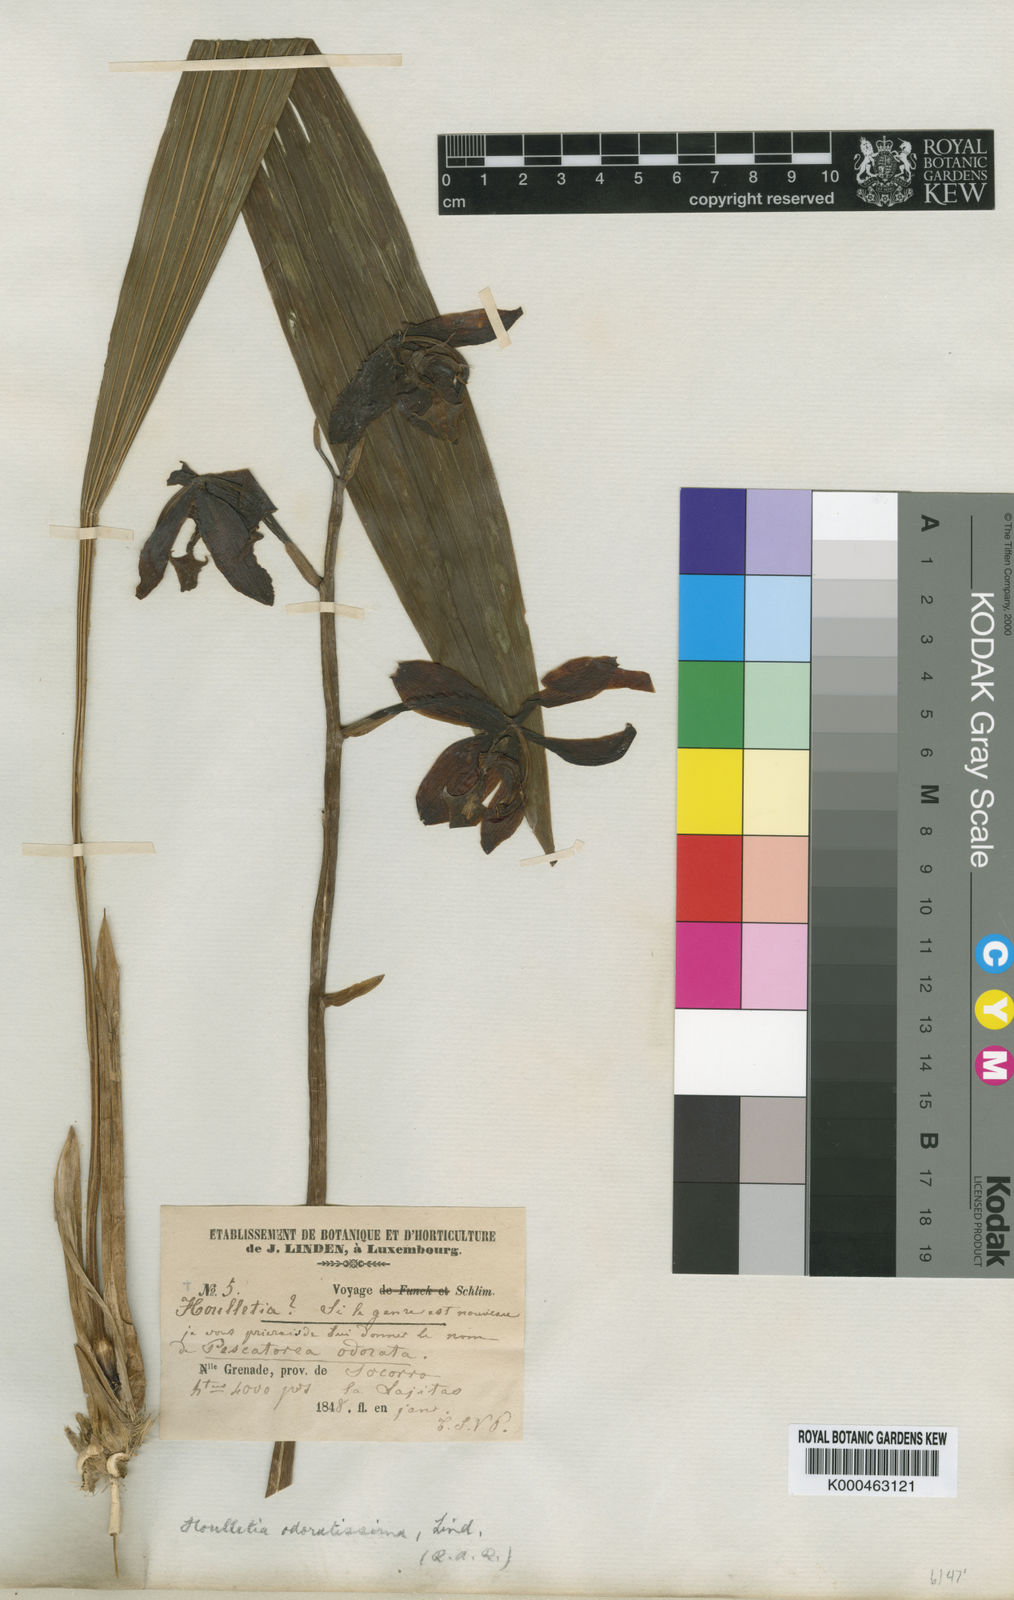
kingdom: Plantae
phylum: Tracheophyta
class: Liliopsida
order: Asparagales
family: Orchidaceae
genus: Houlletia
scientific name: Houlletia odoratissima
